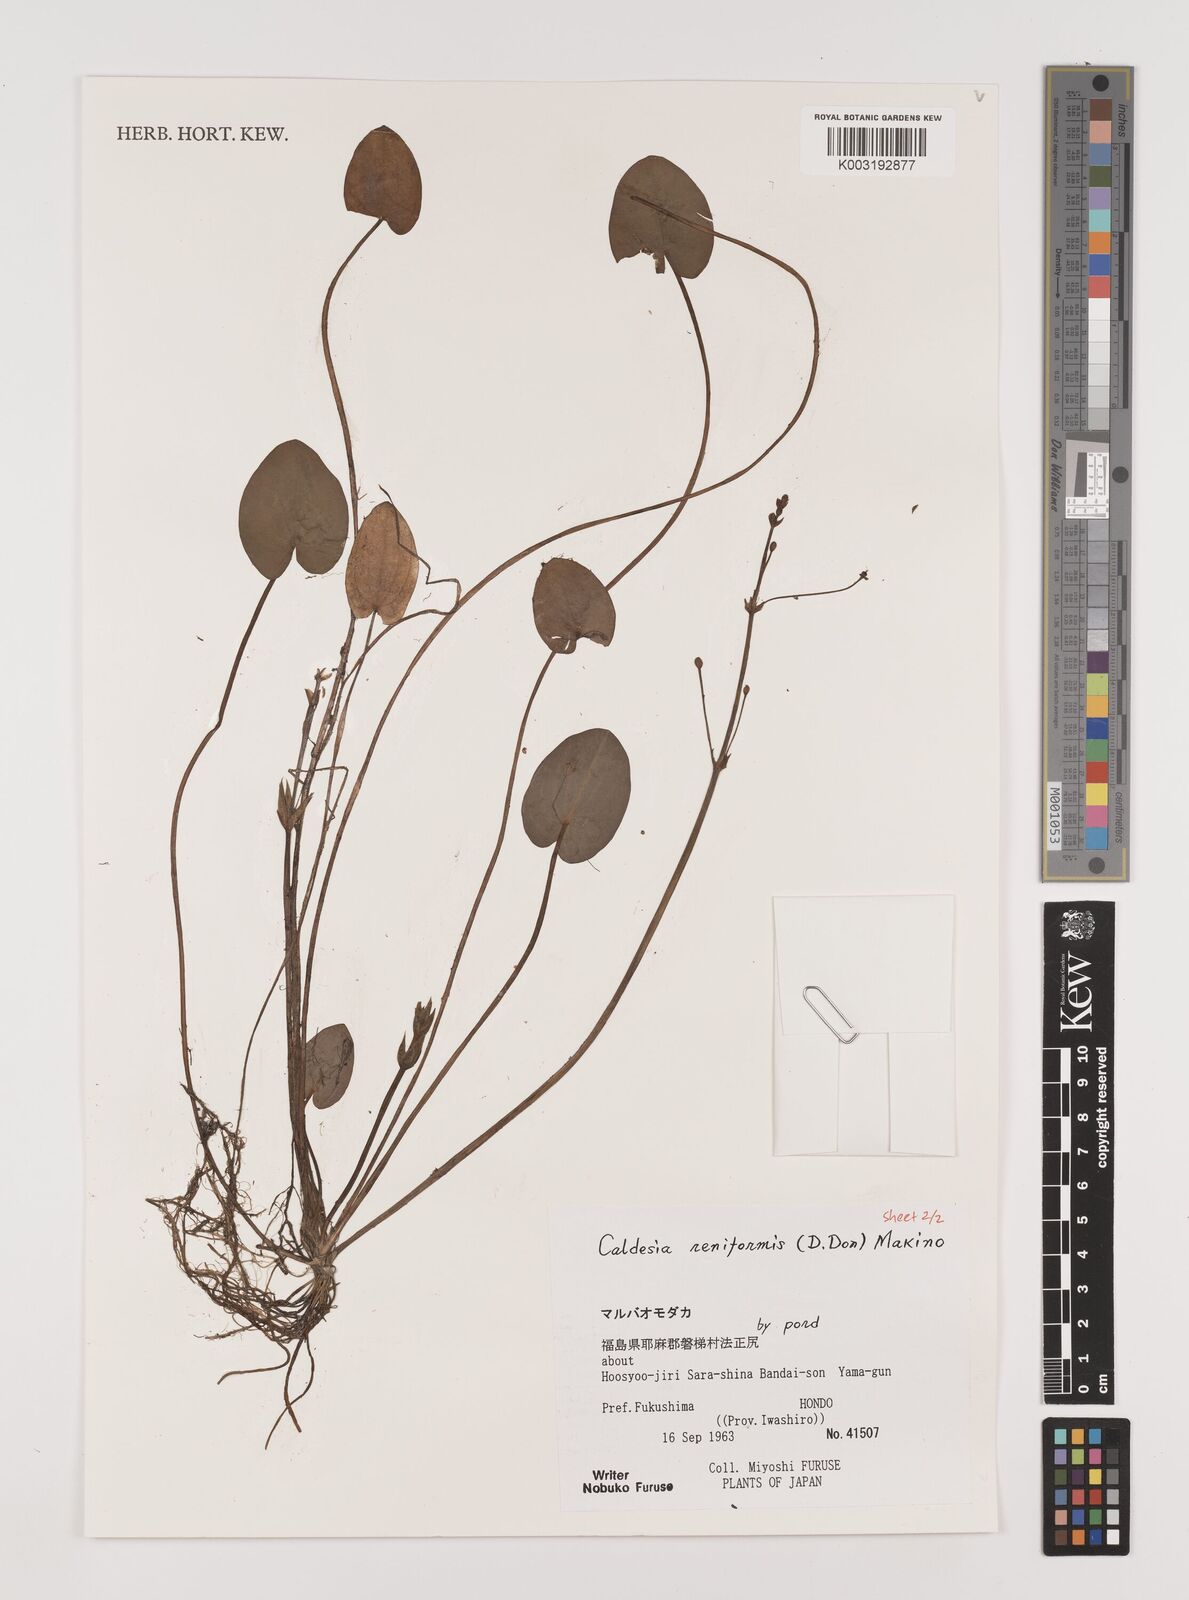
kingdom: Plantae
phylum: Tracheophyta
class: Liliopsida
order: Alismatales
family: Alismataceae
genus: Caldesia
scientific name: Caldesia parnassifolia
